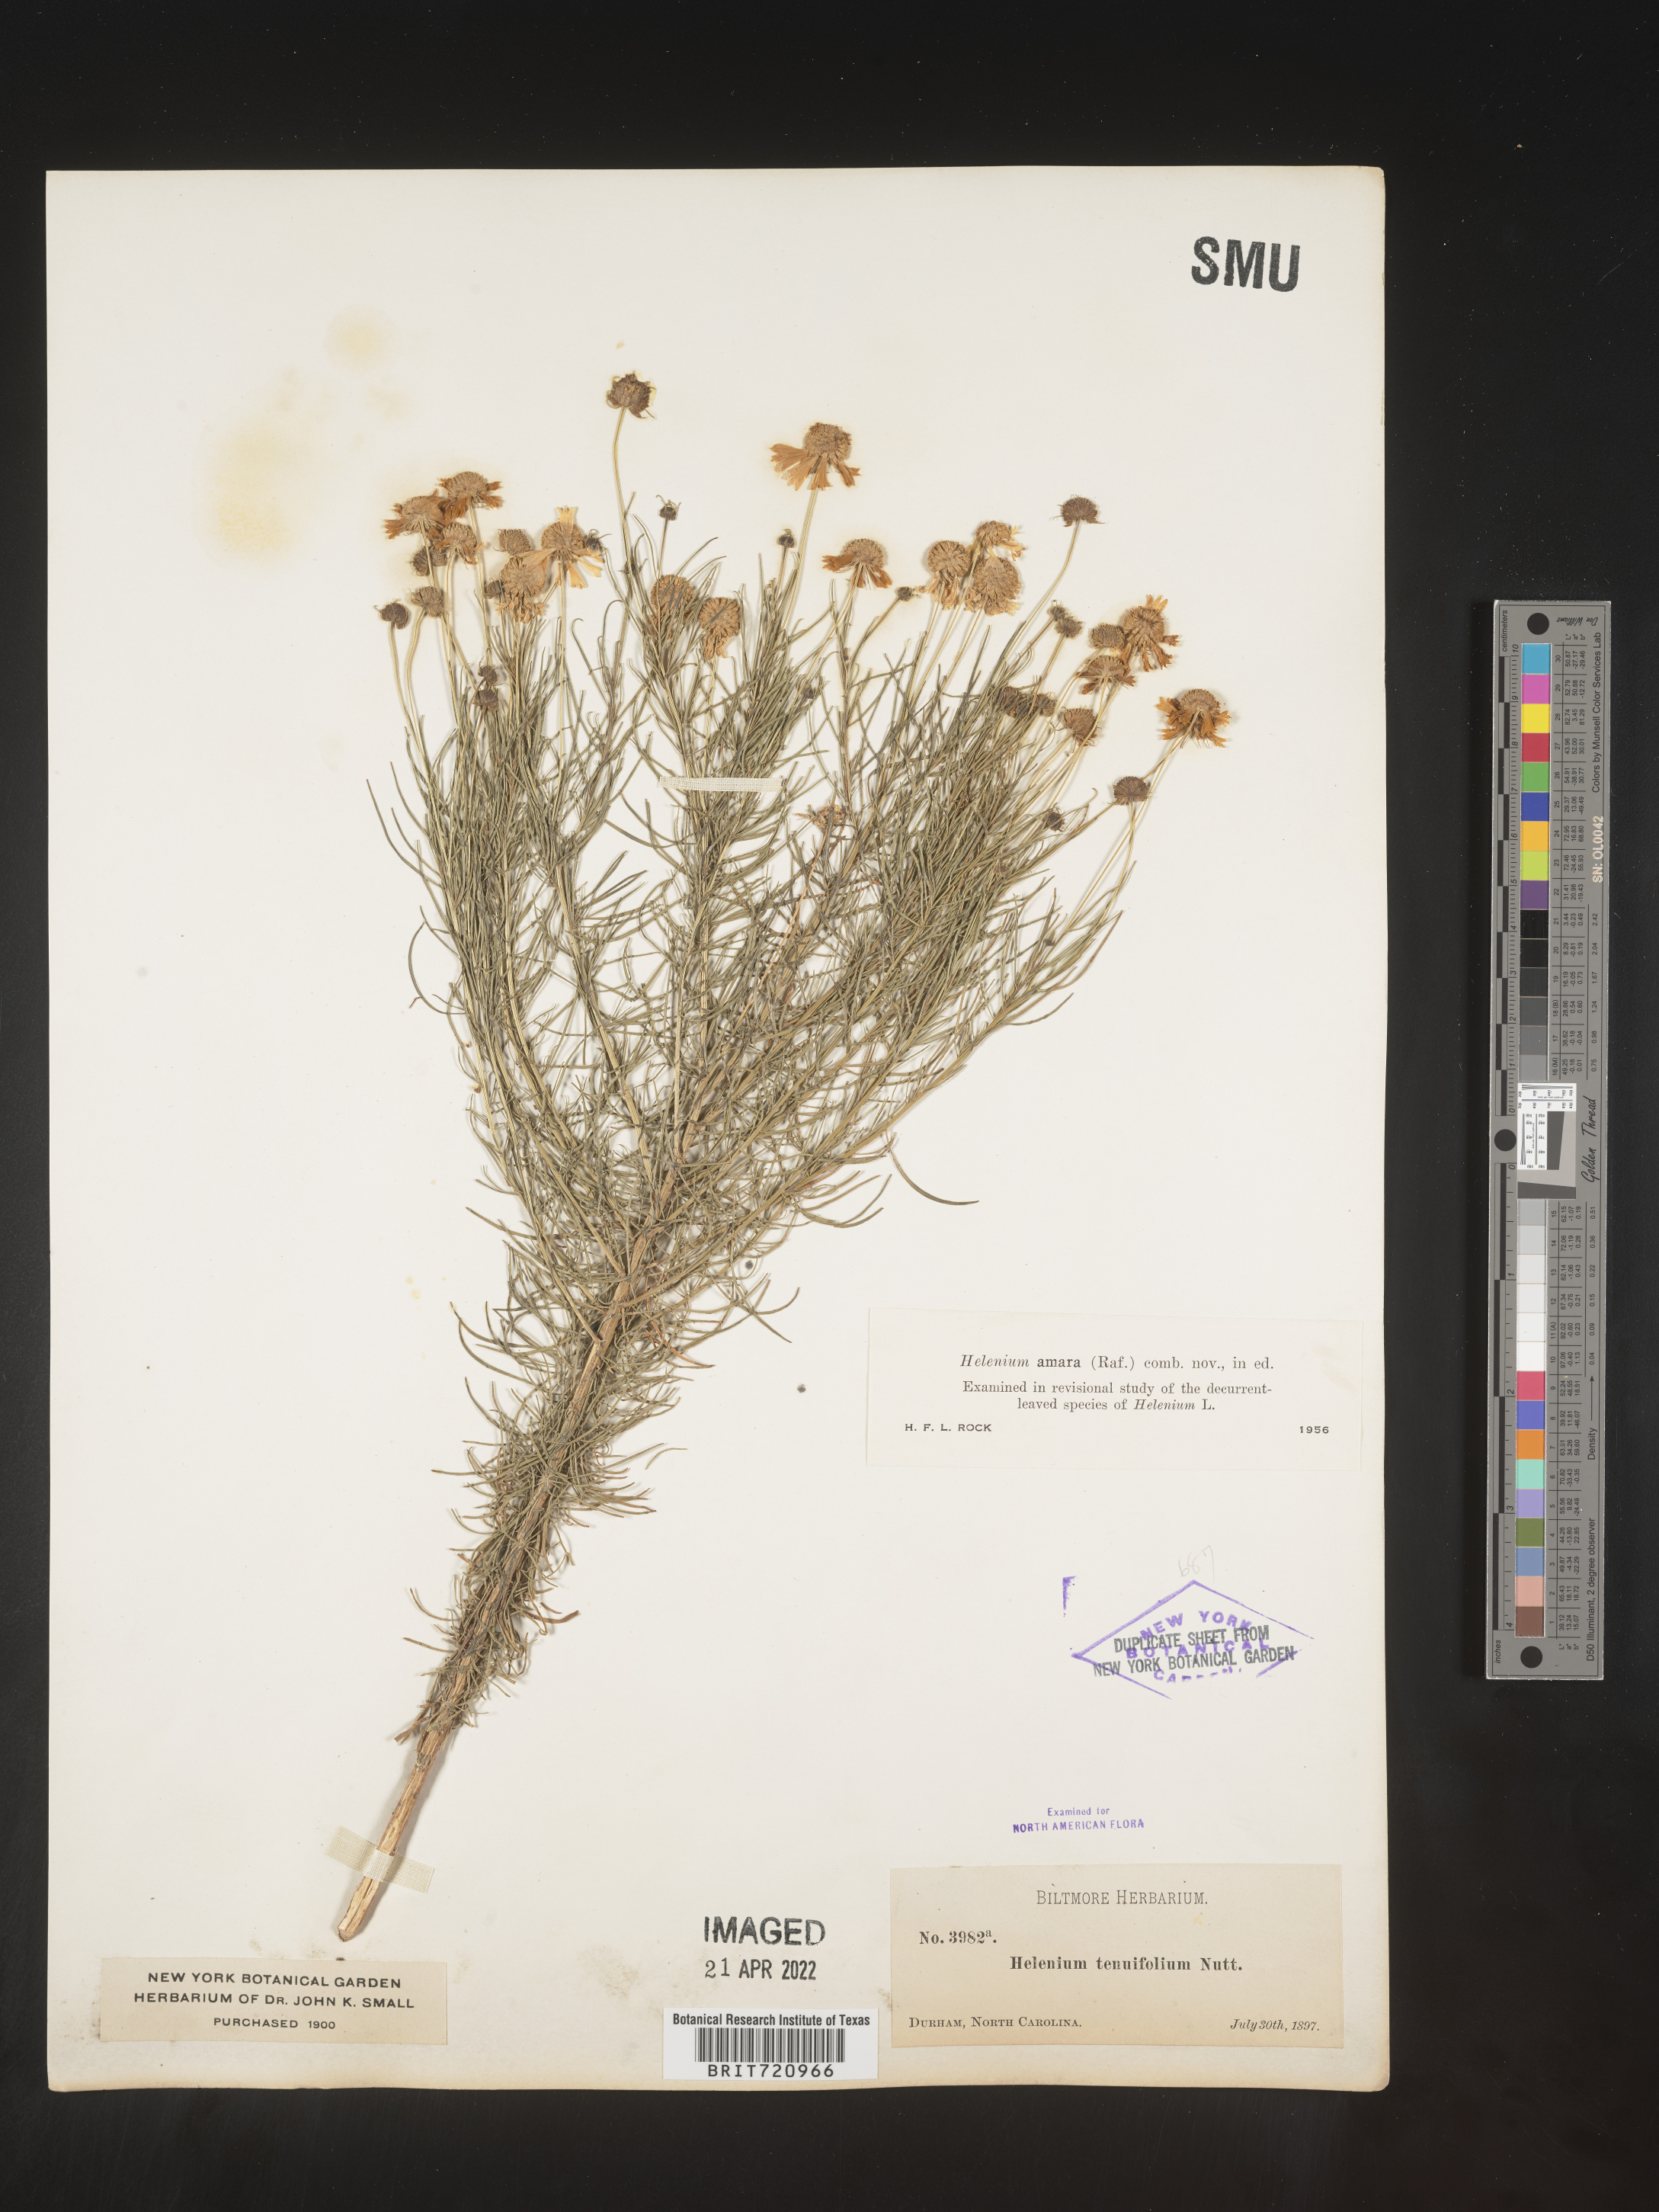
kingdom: Plantae
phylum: Tracheophyta
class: Magnoliopsida
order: Asterales
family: Asteraceae
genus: Helenium
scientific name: Helenium amarum
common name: Bitter sneezeweed
